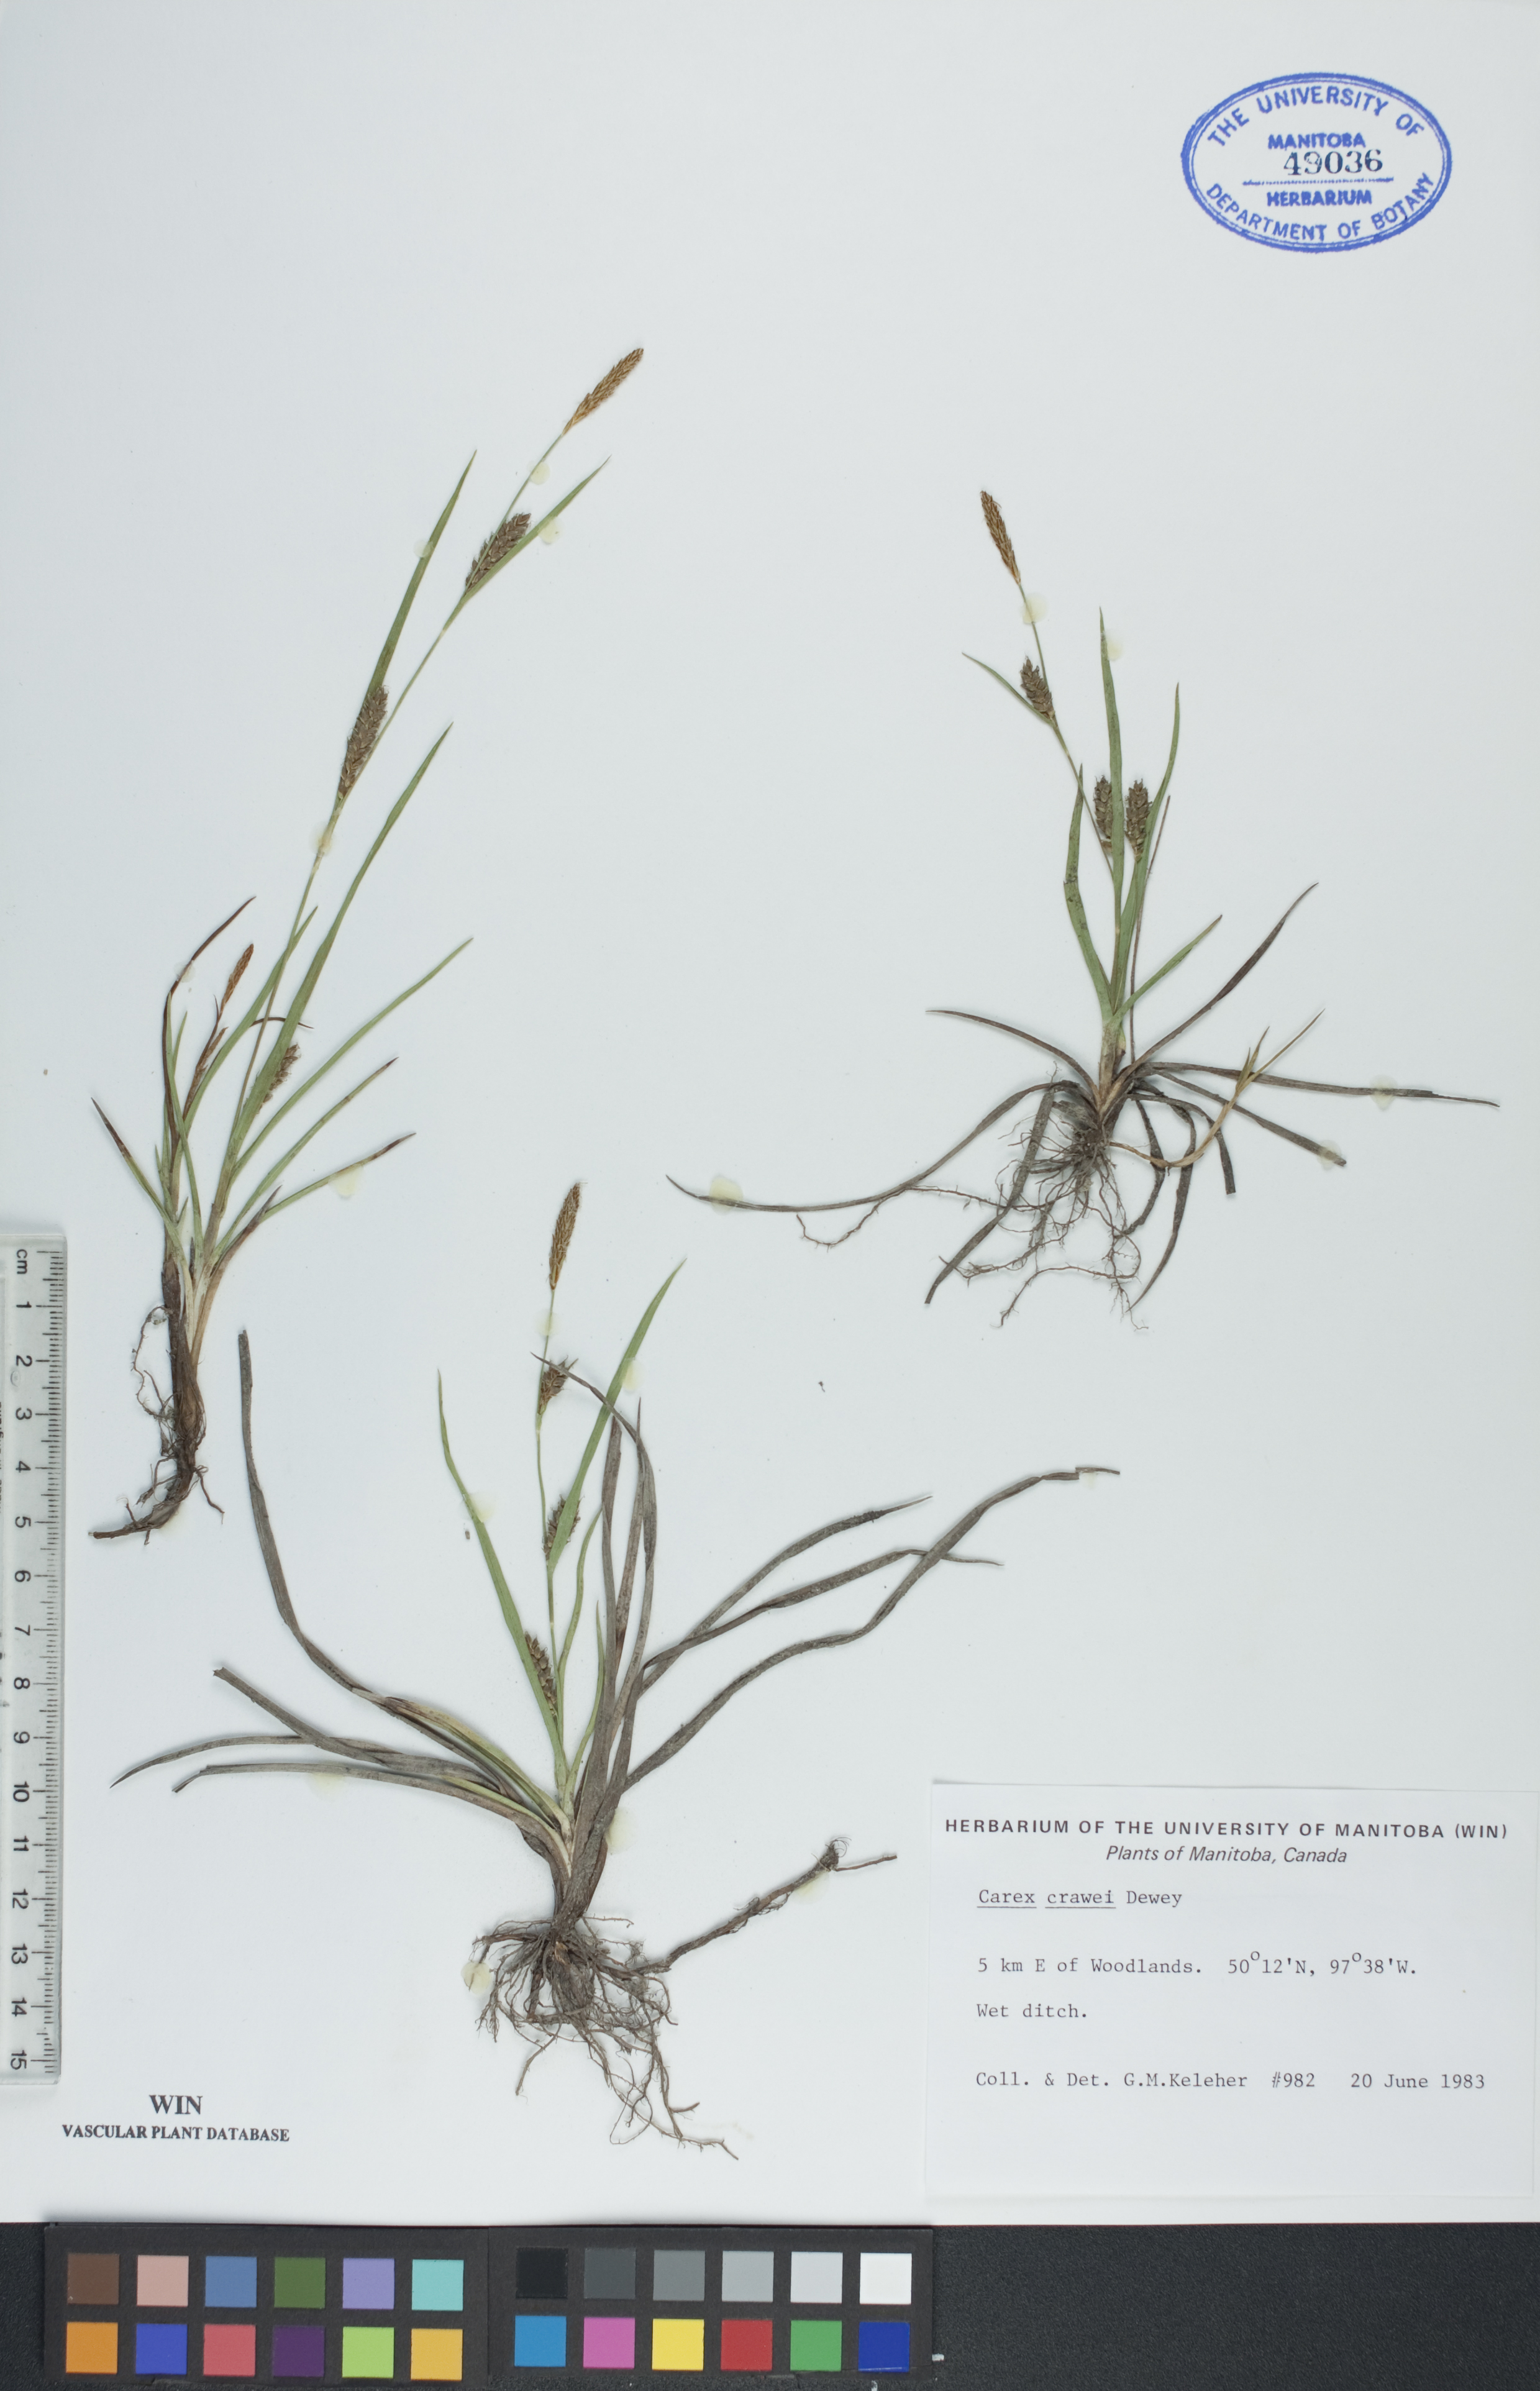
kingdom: Plantae
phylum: Tracheophyta
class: Liliopsida
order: Poales
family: Cyperaceae
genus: Carex
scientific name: Carex crawei
